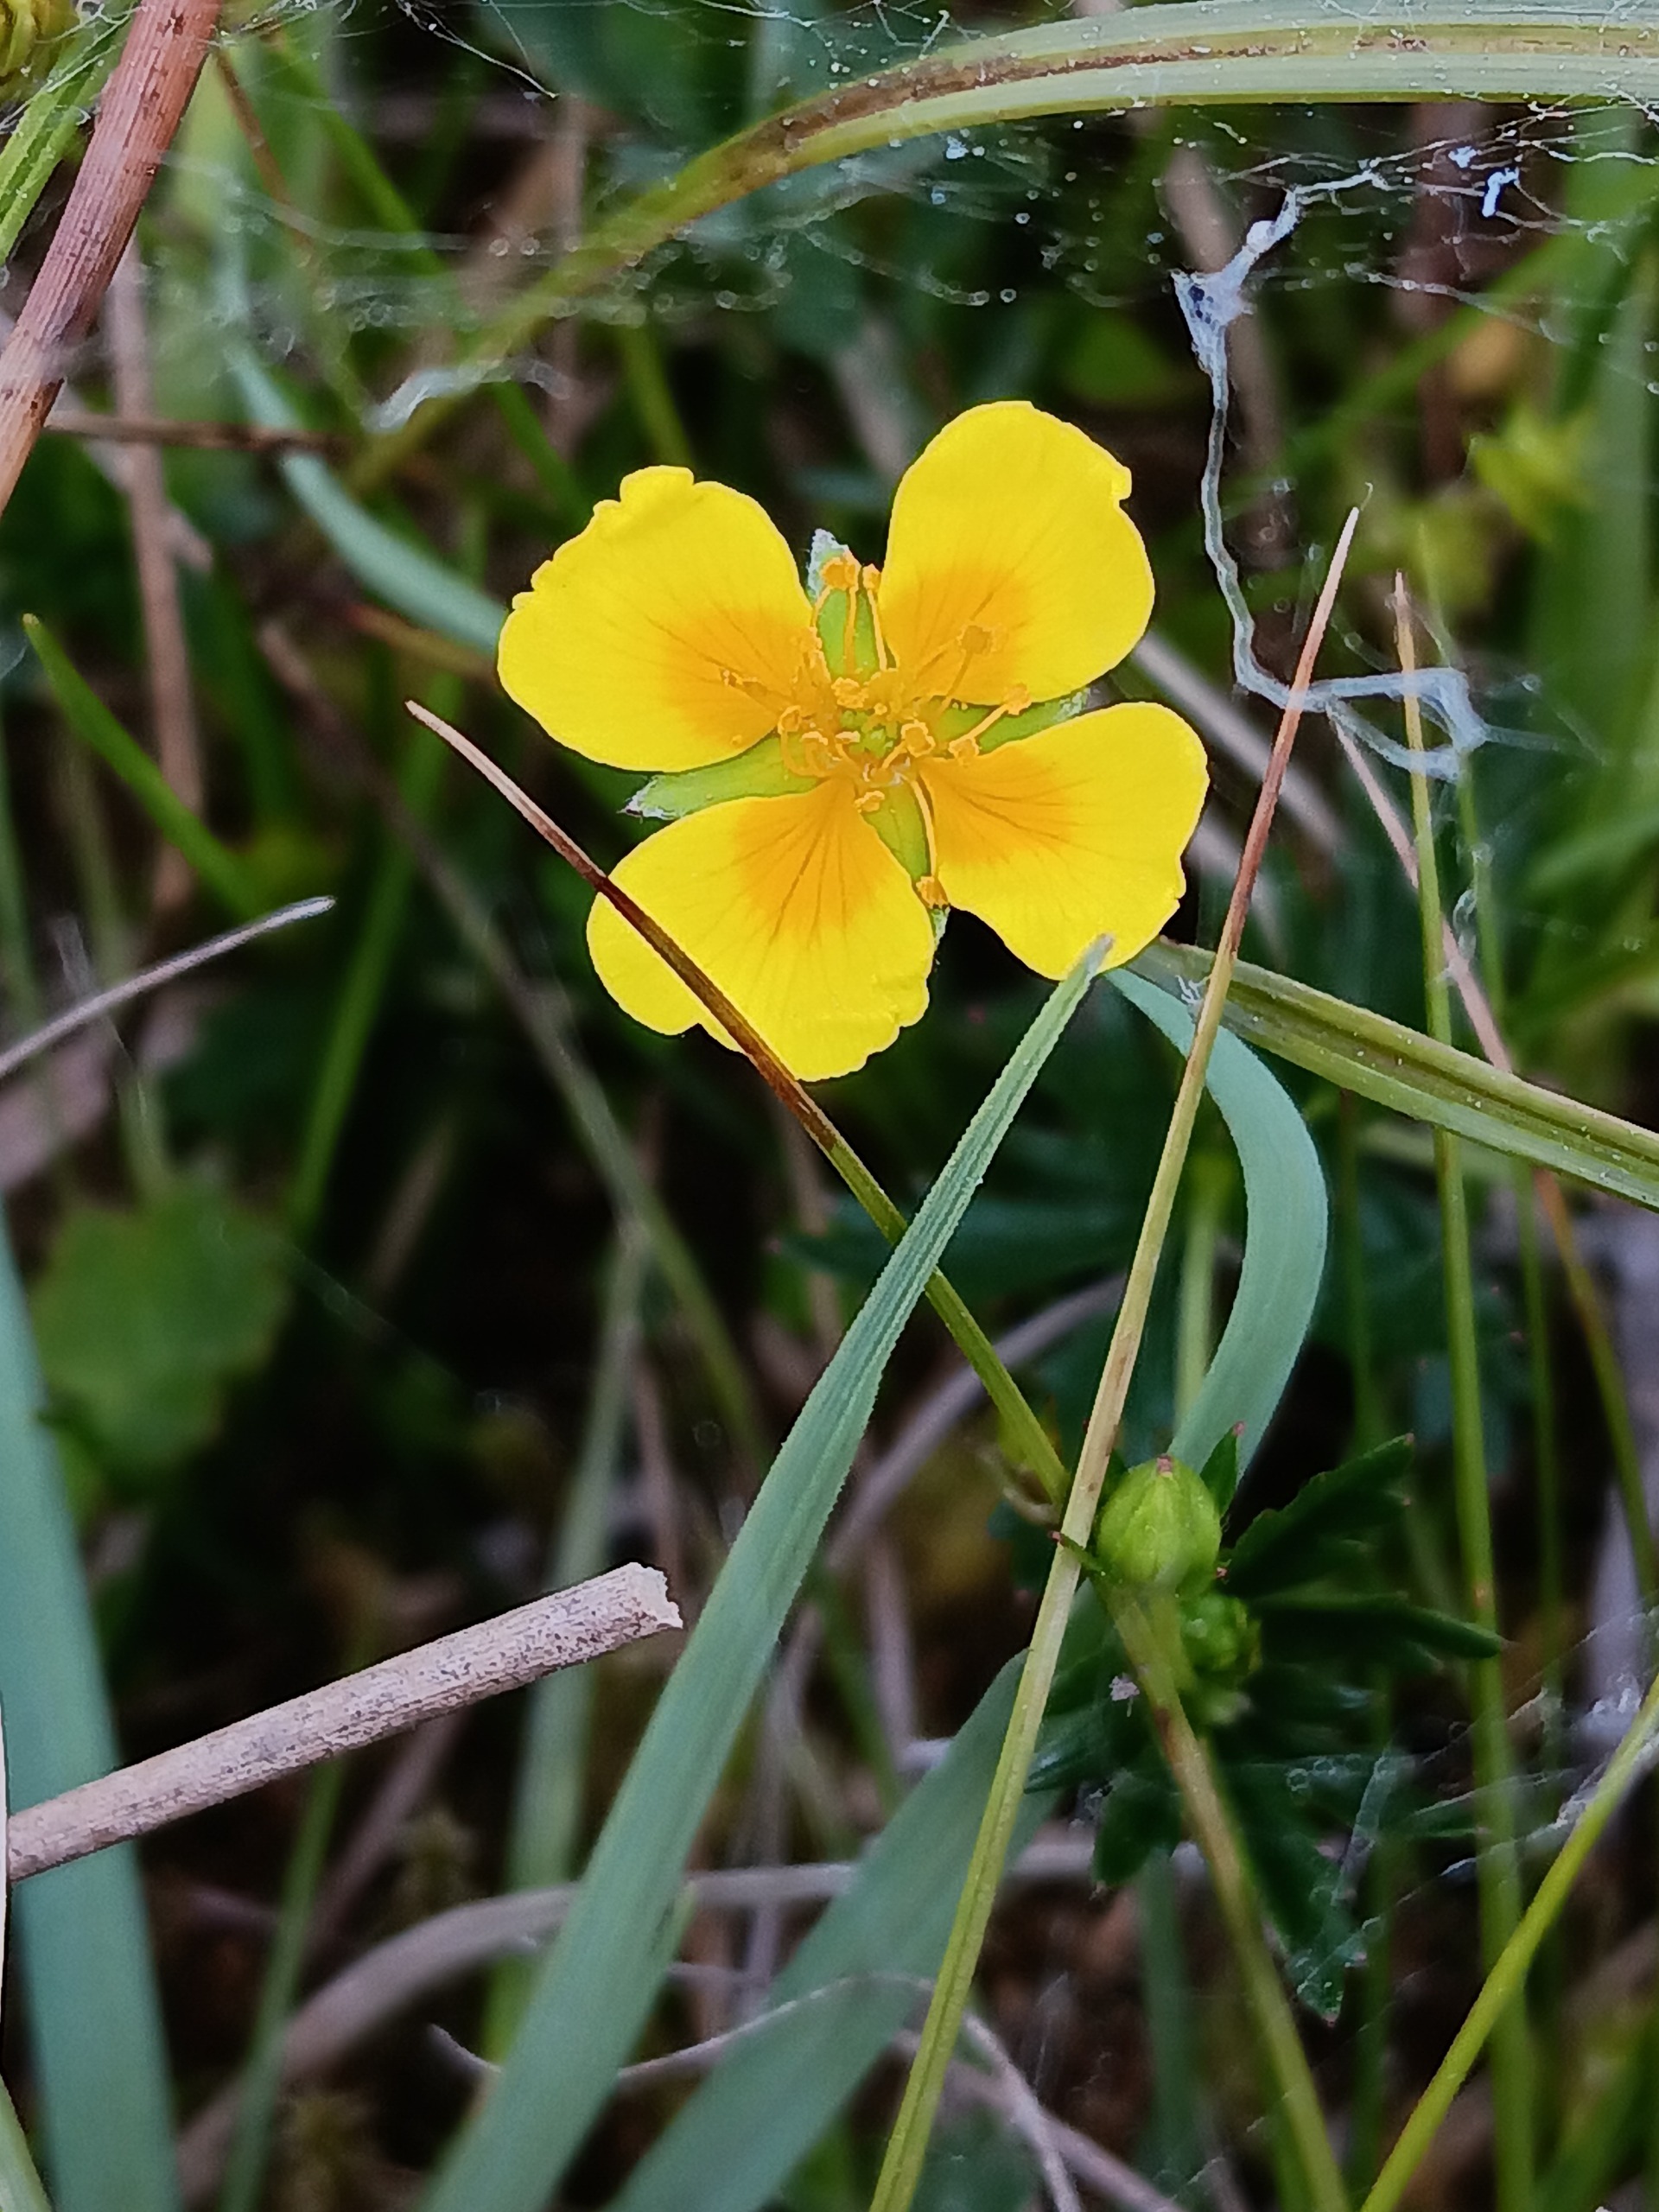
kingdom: Plantae
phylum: Tracheophyta
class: Magnoliopsida
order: Rosales
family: Rosaceae
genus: Potentilla
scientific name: Potentilla erecta
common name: Tormentil
